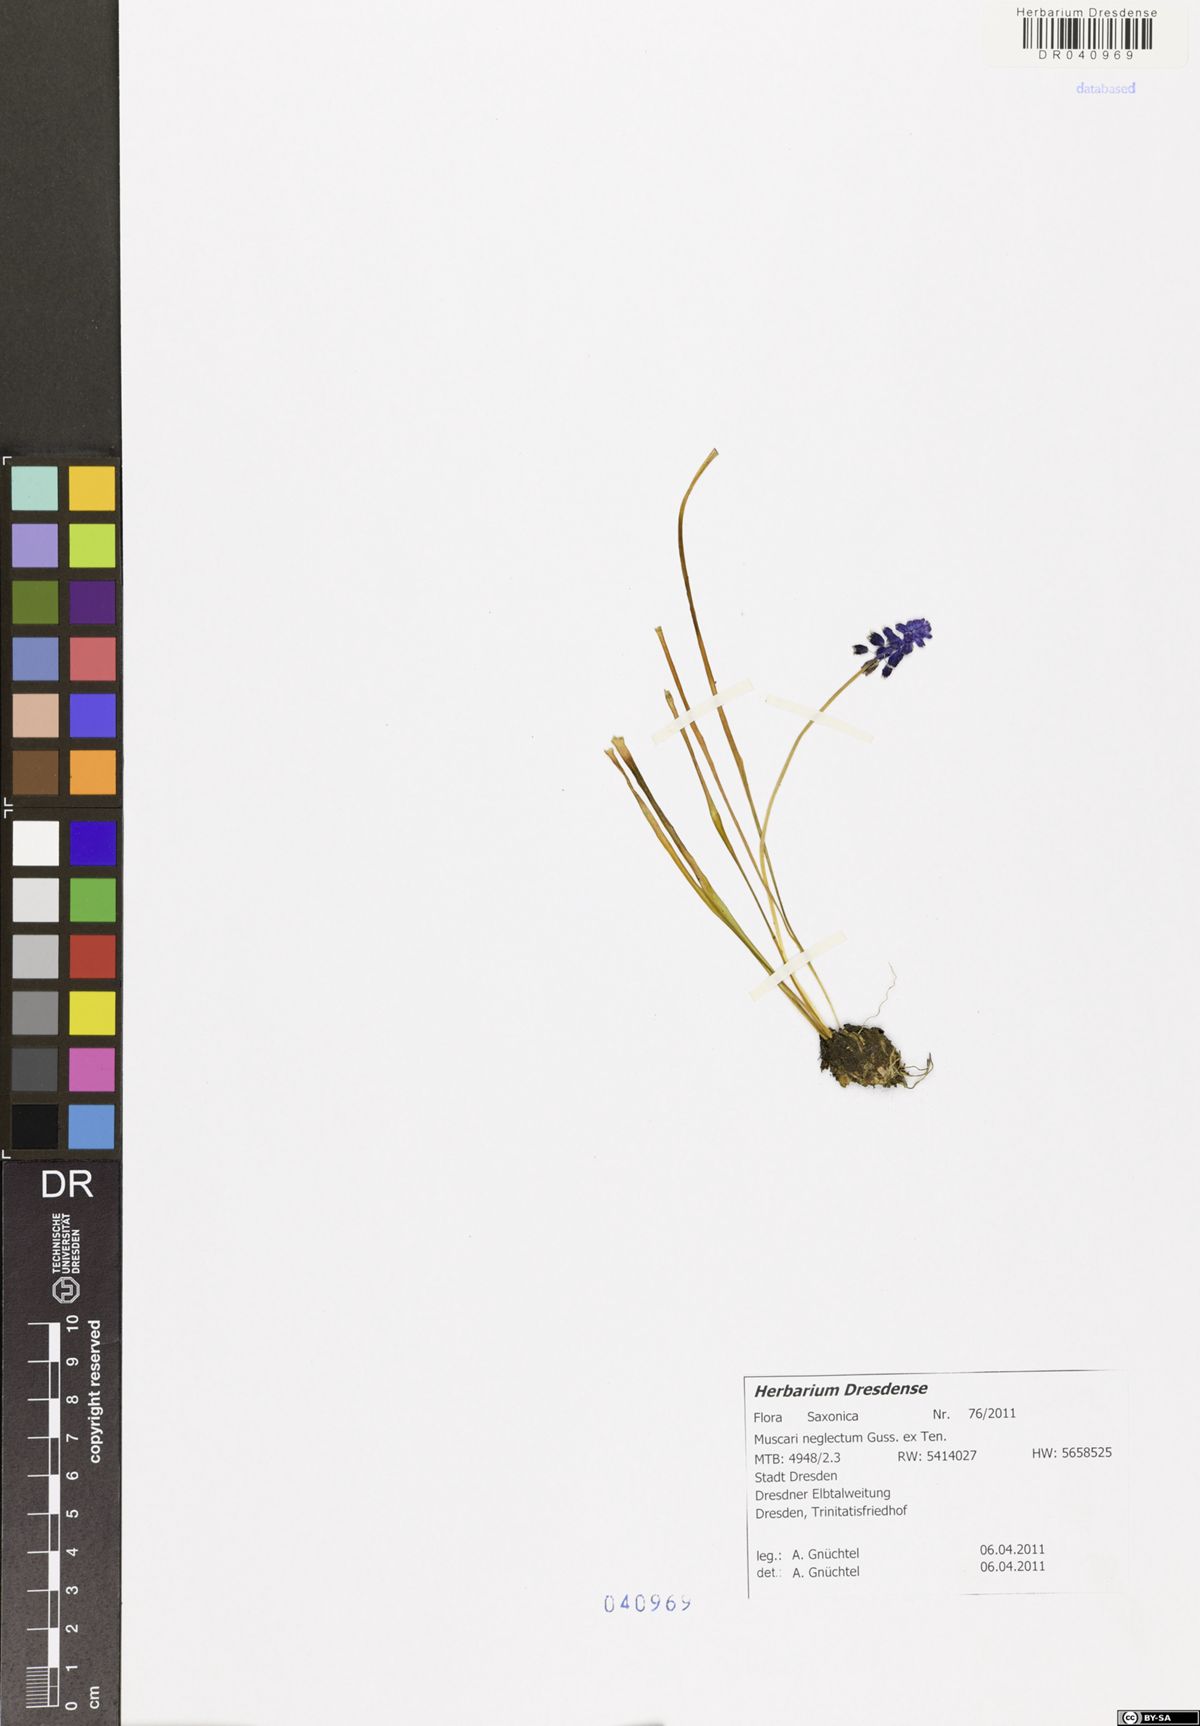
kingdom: Plantae
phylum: Tracheophyta
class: Liliopsida
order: Asparagales
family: Asparagaceae
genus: Muscari
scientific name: Muscari neglectum
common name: Grape-hyacinth
